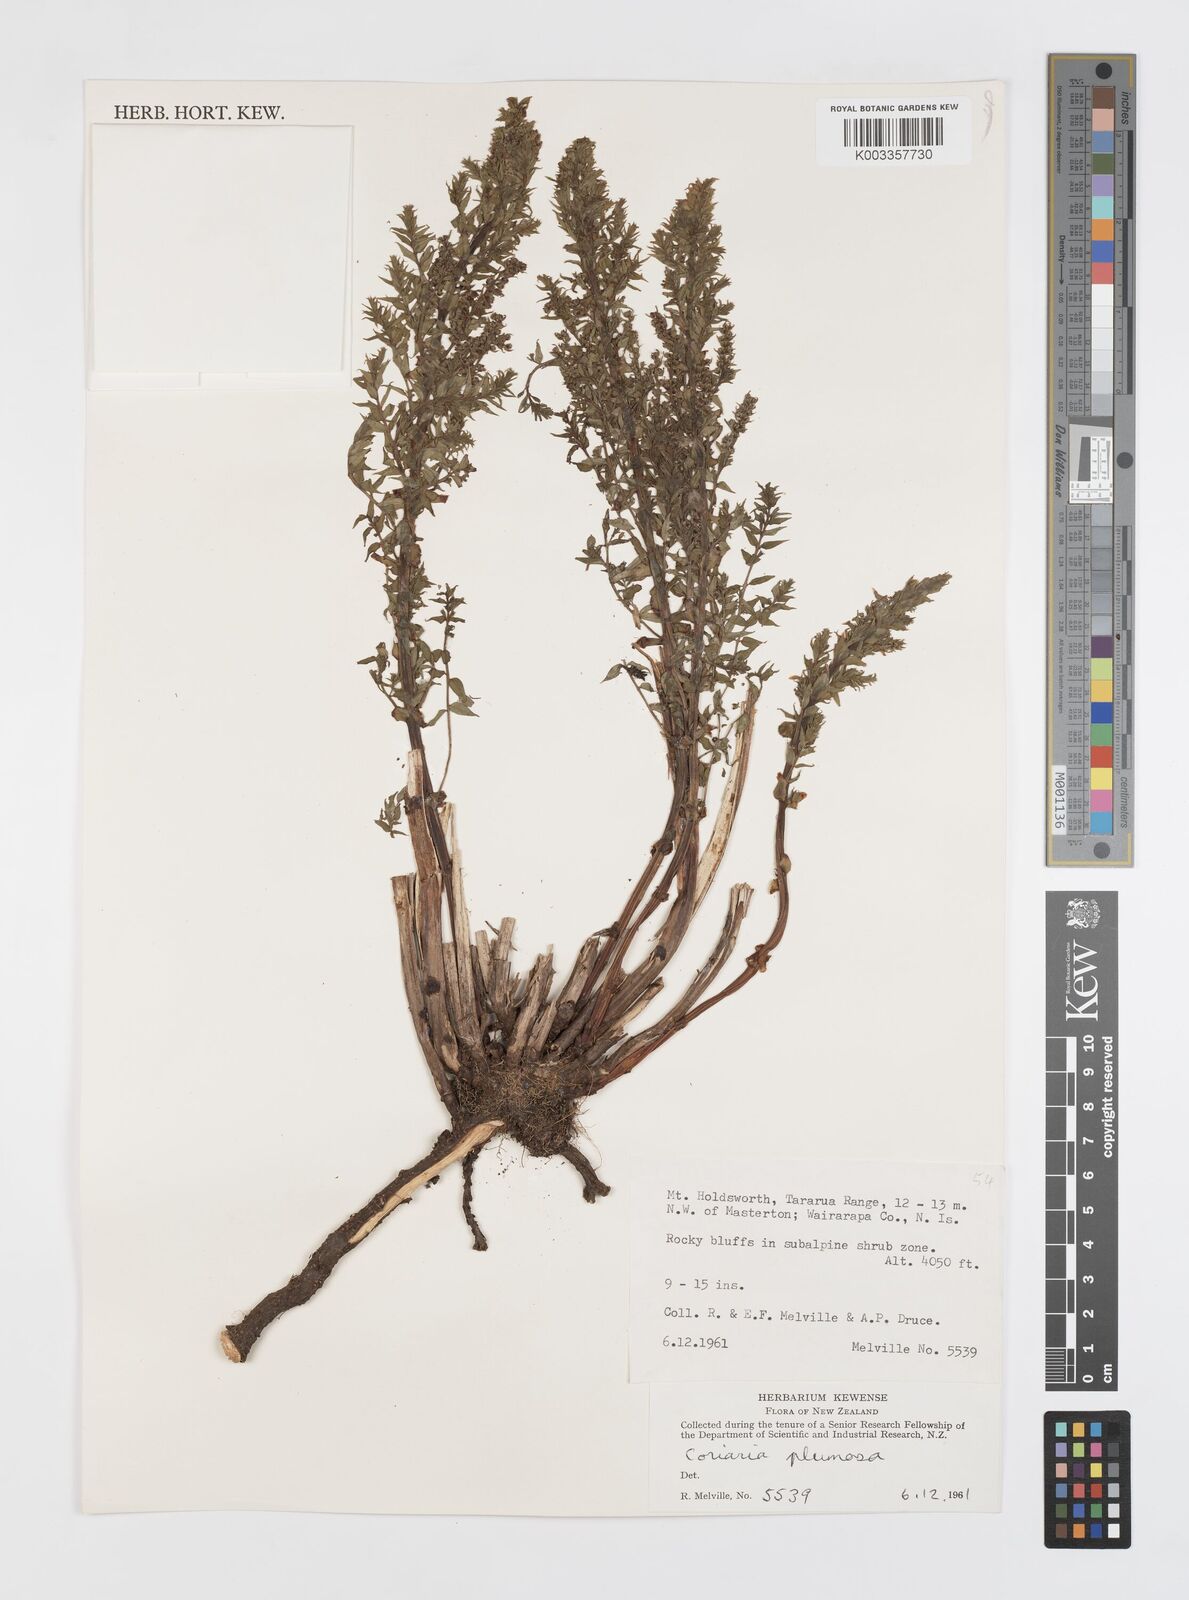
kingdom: Plantae
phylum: Tracheophyta
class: Magnoliopsida
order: Cucurbitales
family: Coriariaceae
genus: Coriaria
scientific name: Coriaria plumosa
